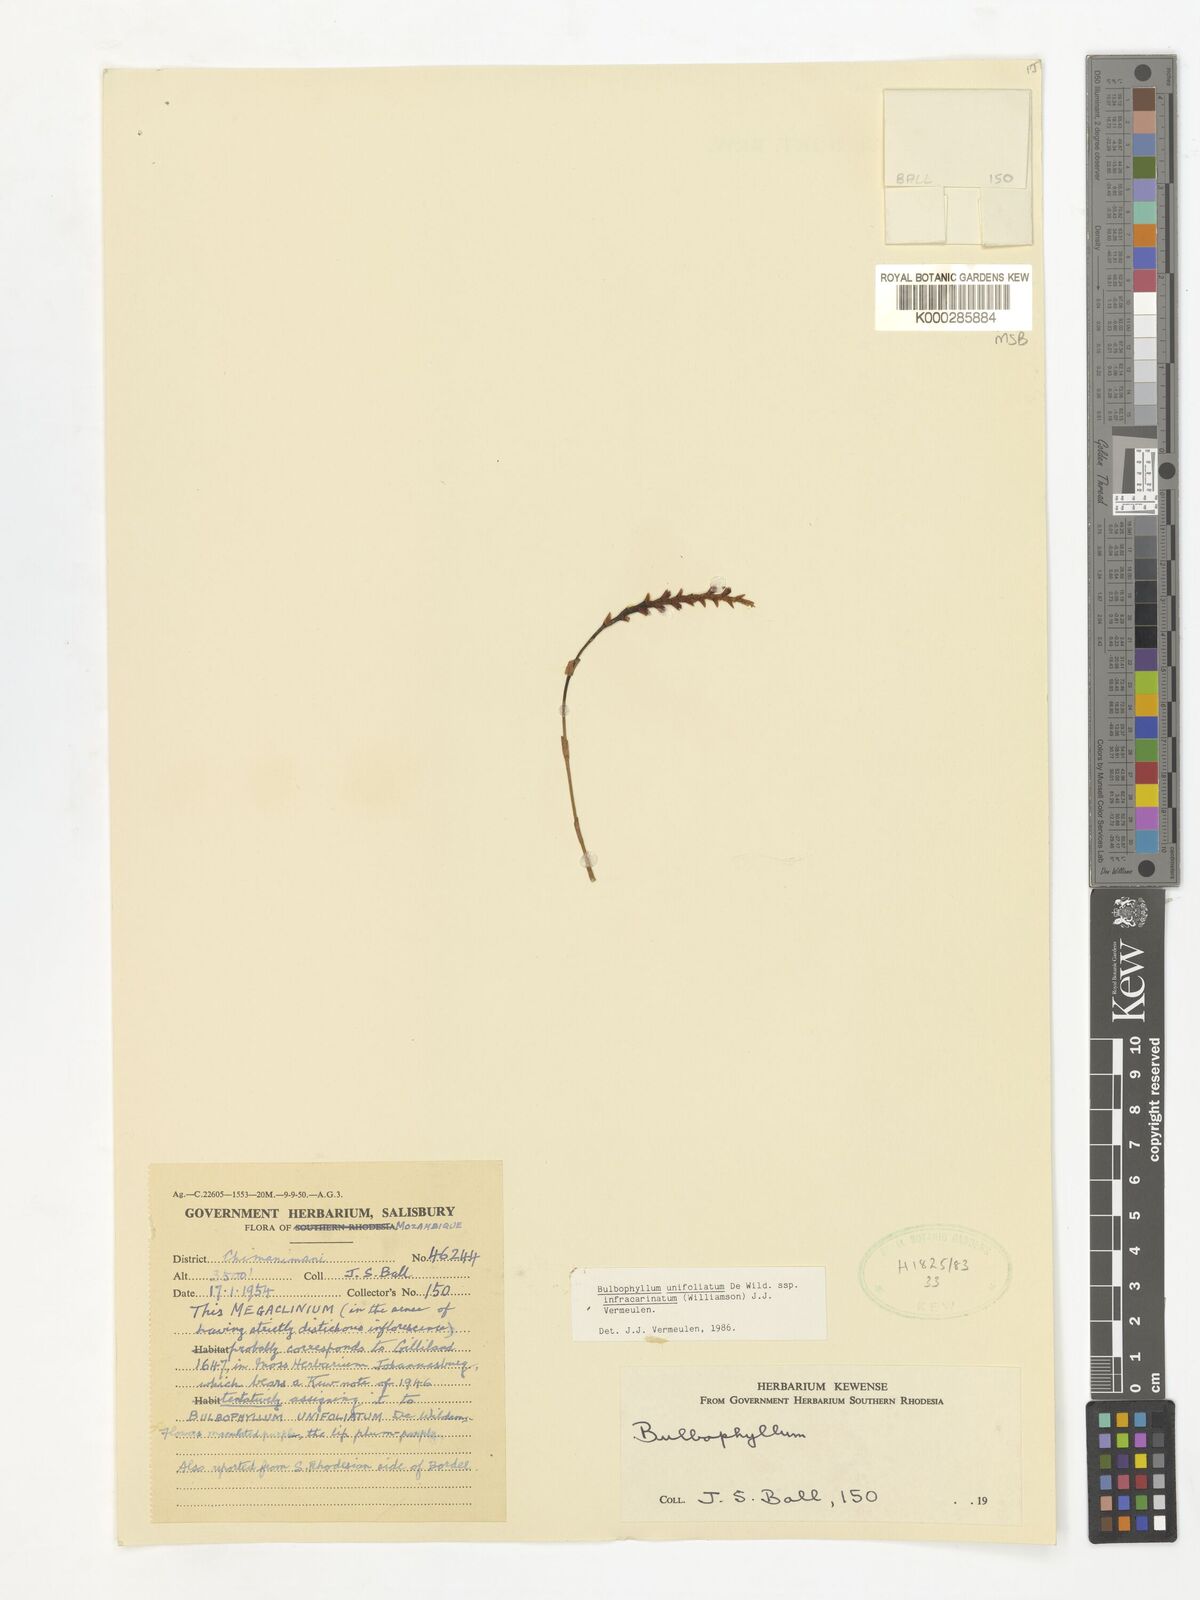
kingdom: Plantae
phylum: Tracheophyta
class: Liliopsida
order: Asparagales
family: Orchidaceae
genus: Bulbophyllum
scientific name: Bulbophyllum unifoliatum
